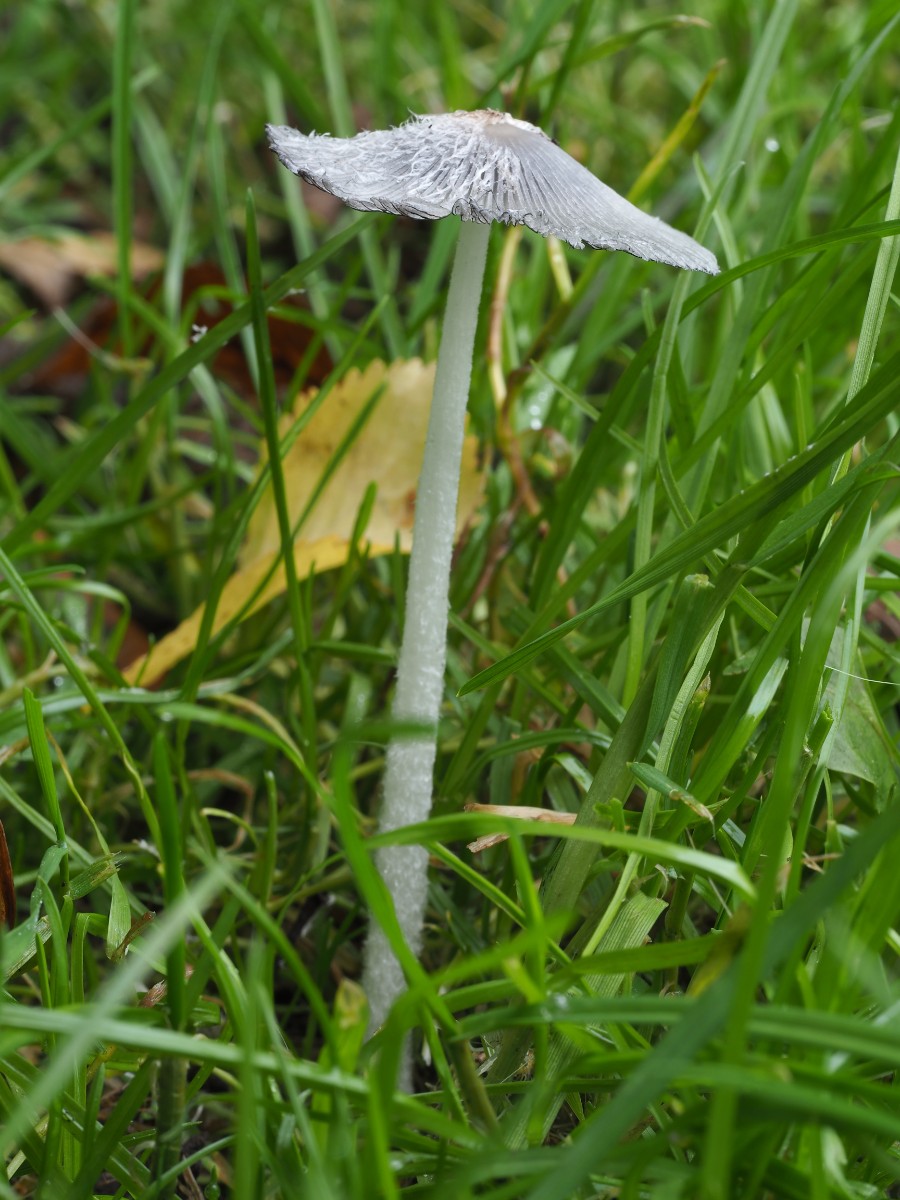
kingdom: Fungi
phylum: Basidiomycota
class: Agaricomycetes
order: Agaricales
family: Psathyrellaceae
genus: Coprinopsis
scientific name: Coprinopsis lagopus
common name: dunstokket blækhat
